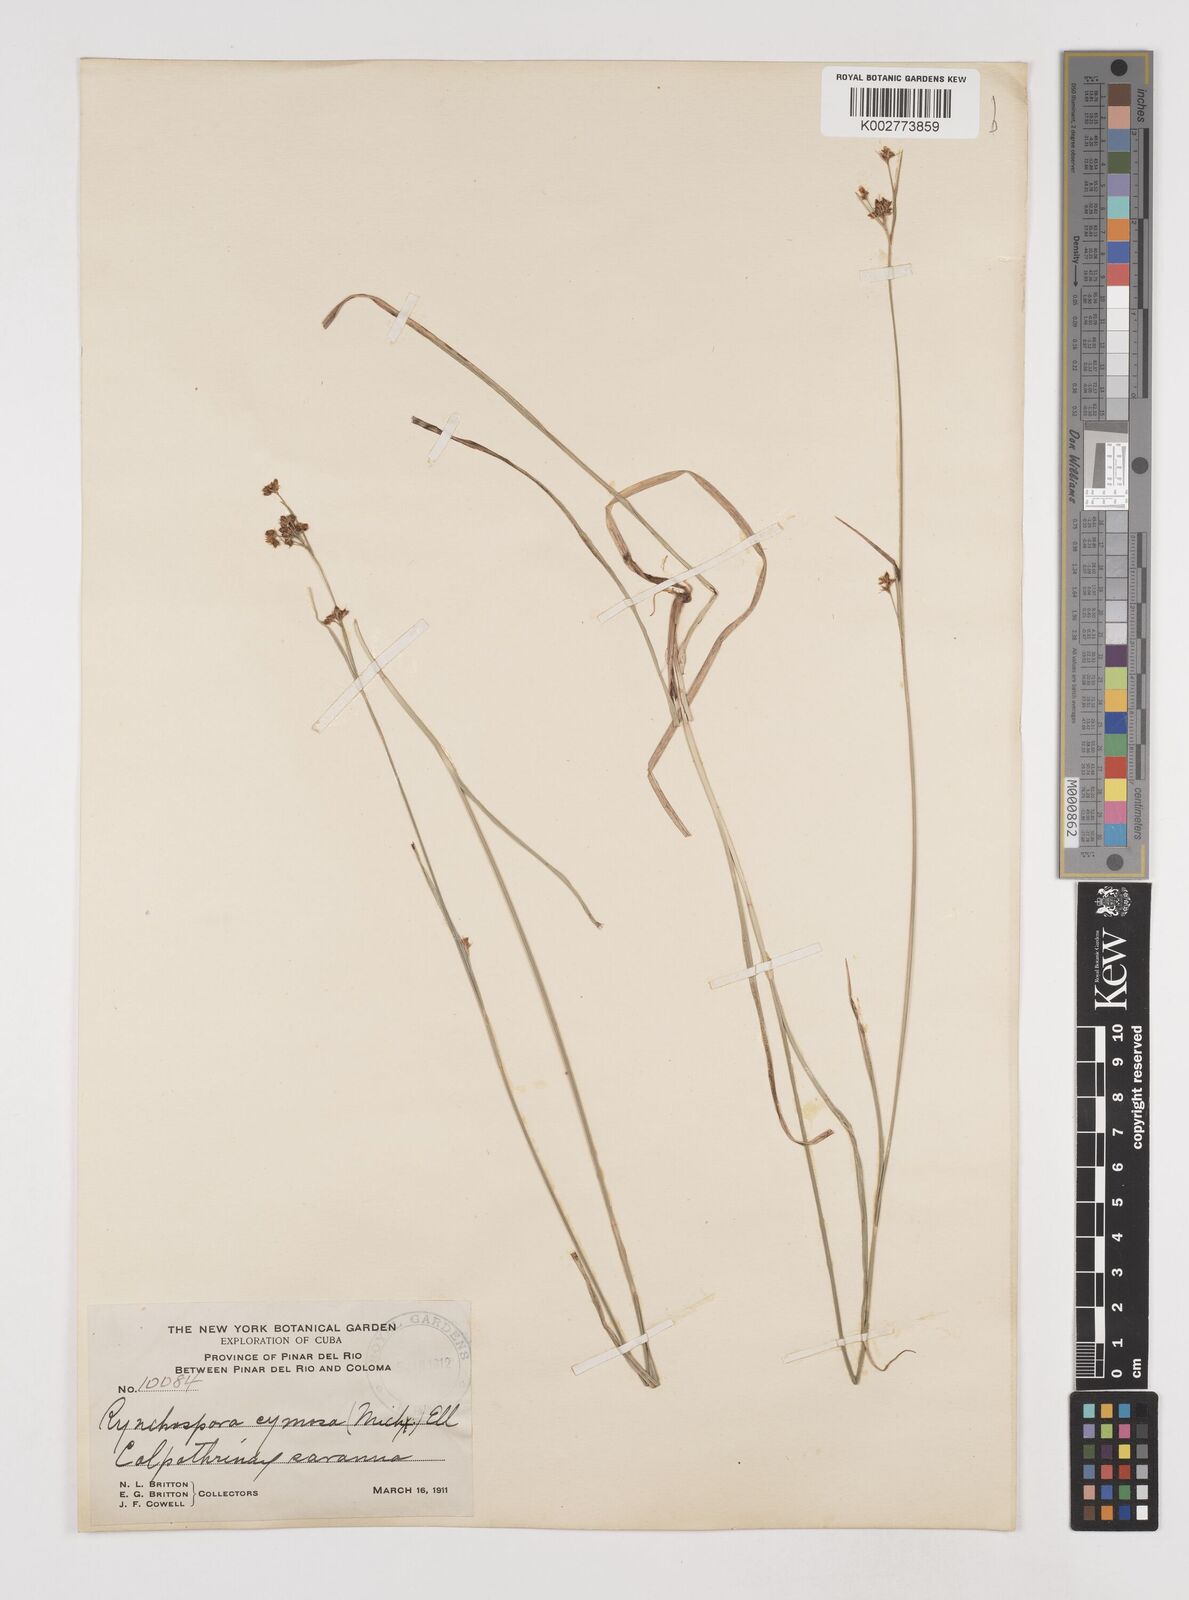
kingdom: Plantae
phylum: Tracheophyta
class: Liliopsida
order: Poales
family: Cyperaceae
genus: Rhynchospora
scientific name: Rhynchospora globularis
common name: Globe beaksedge
